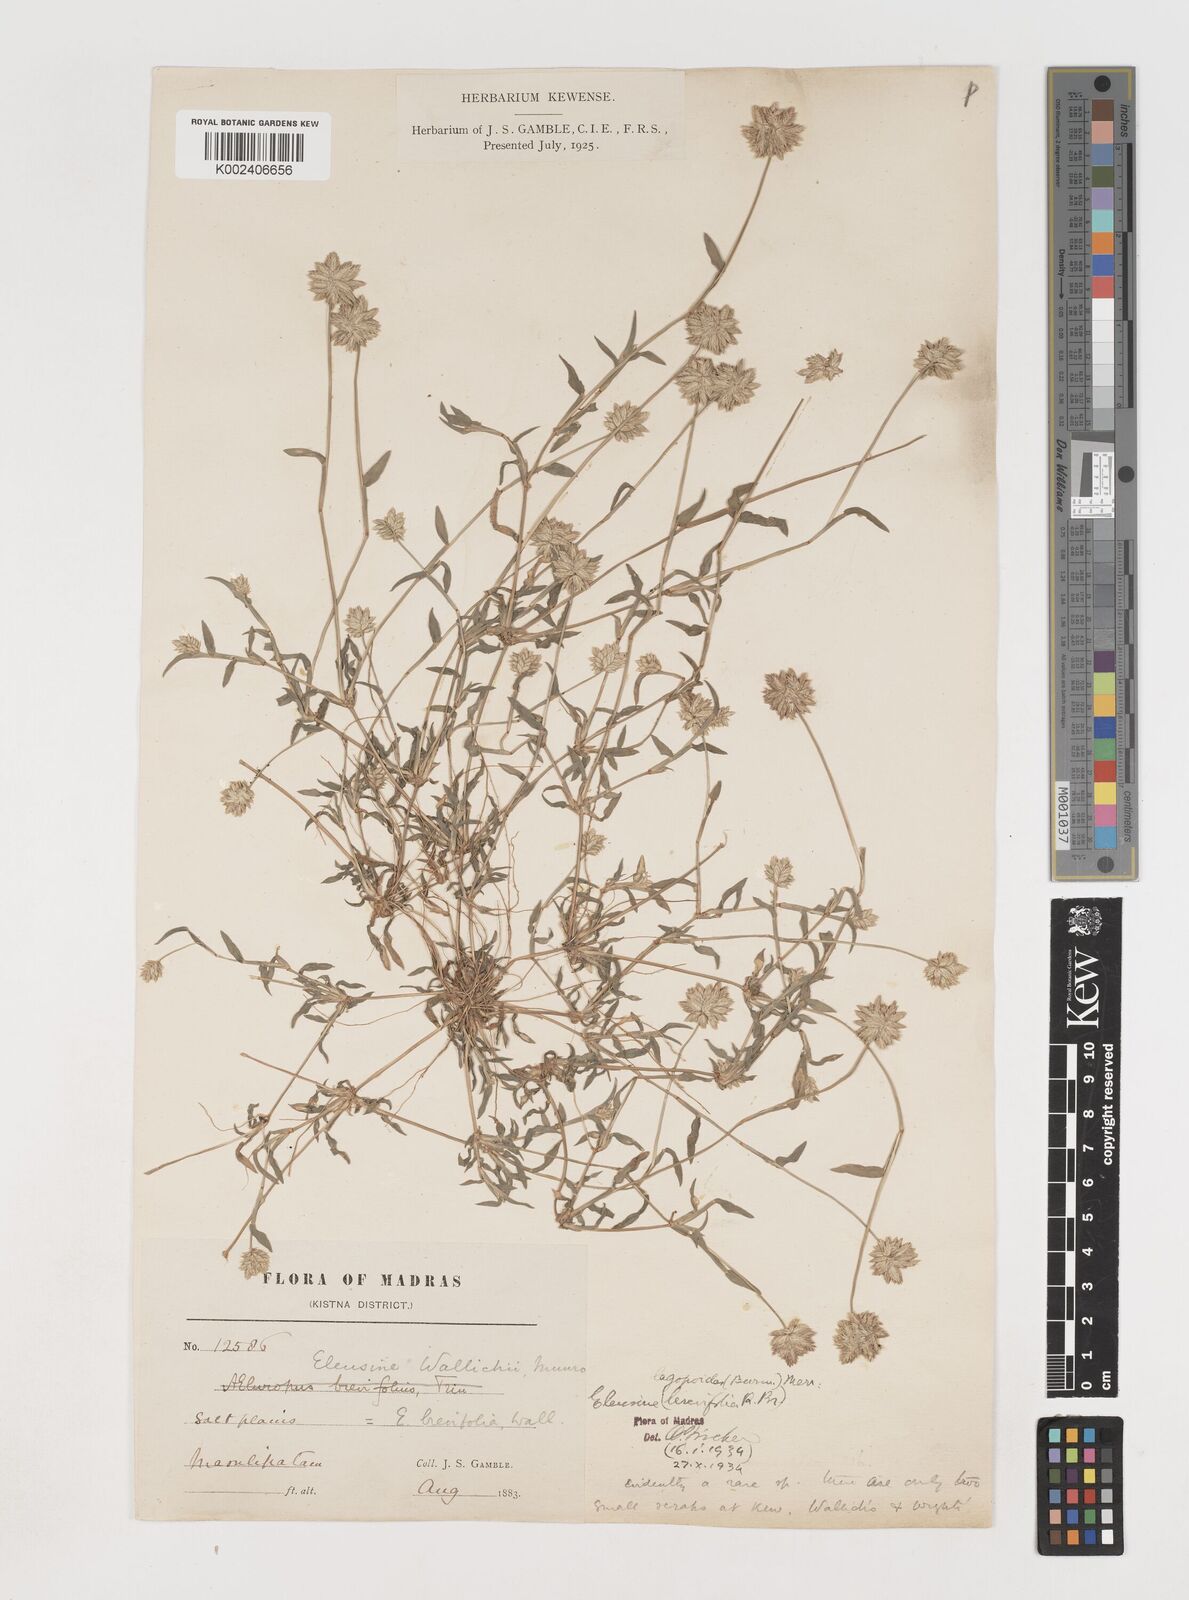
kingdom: Plantae
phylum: Tracheophyta
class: Liliopsida
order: Poales
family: Poaceae
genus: Coelachyrum
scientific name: Coelachyrum lagopoides
